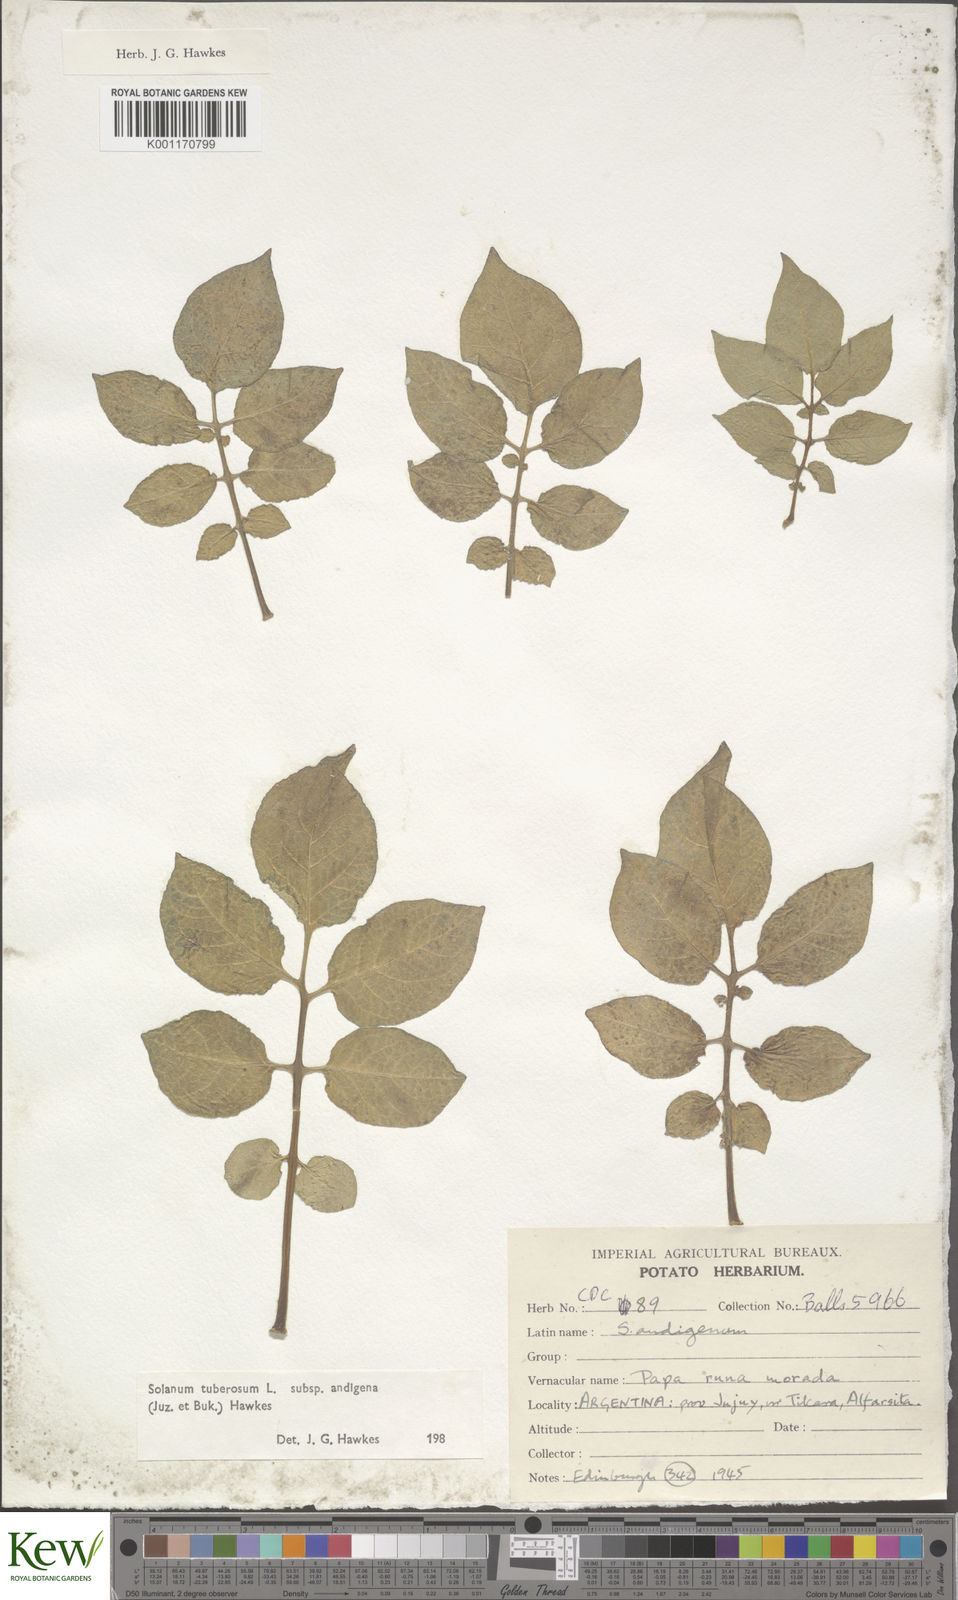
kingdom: Plantae
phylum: Tracheophyta
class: Magnoliopsida
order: Solanales
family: Solanaceae
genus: Solanum
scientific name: Solanum tuberosum
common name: Potato
